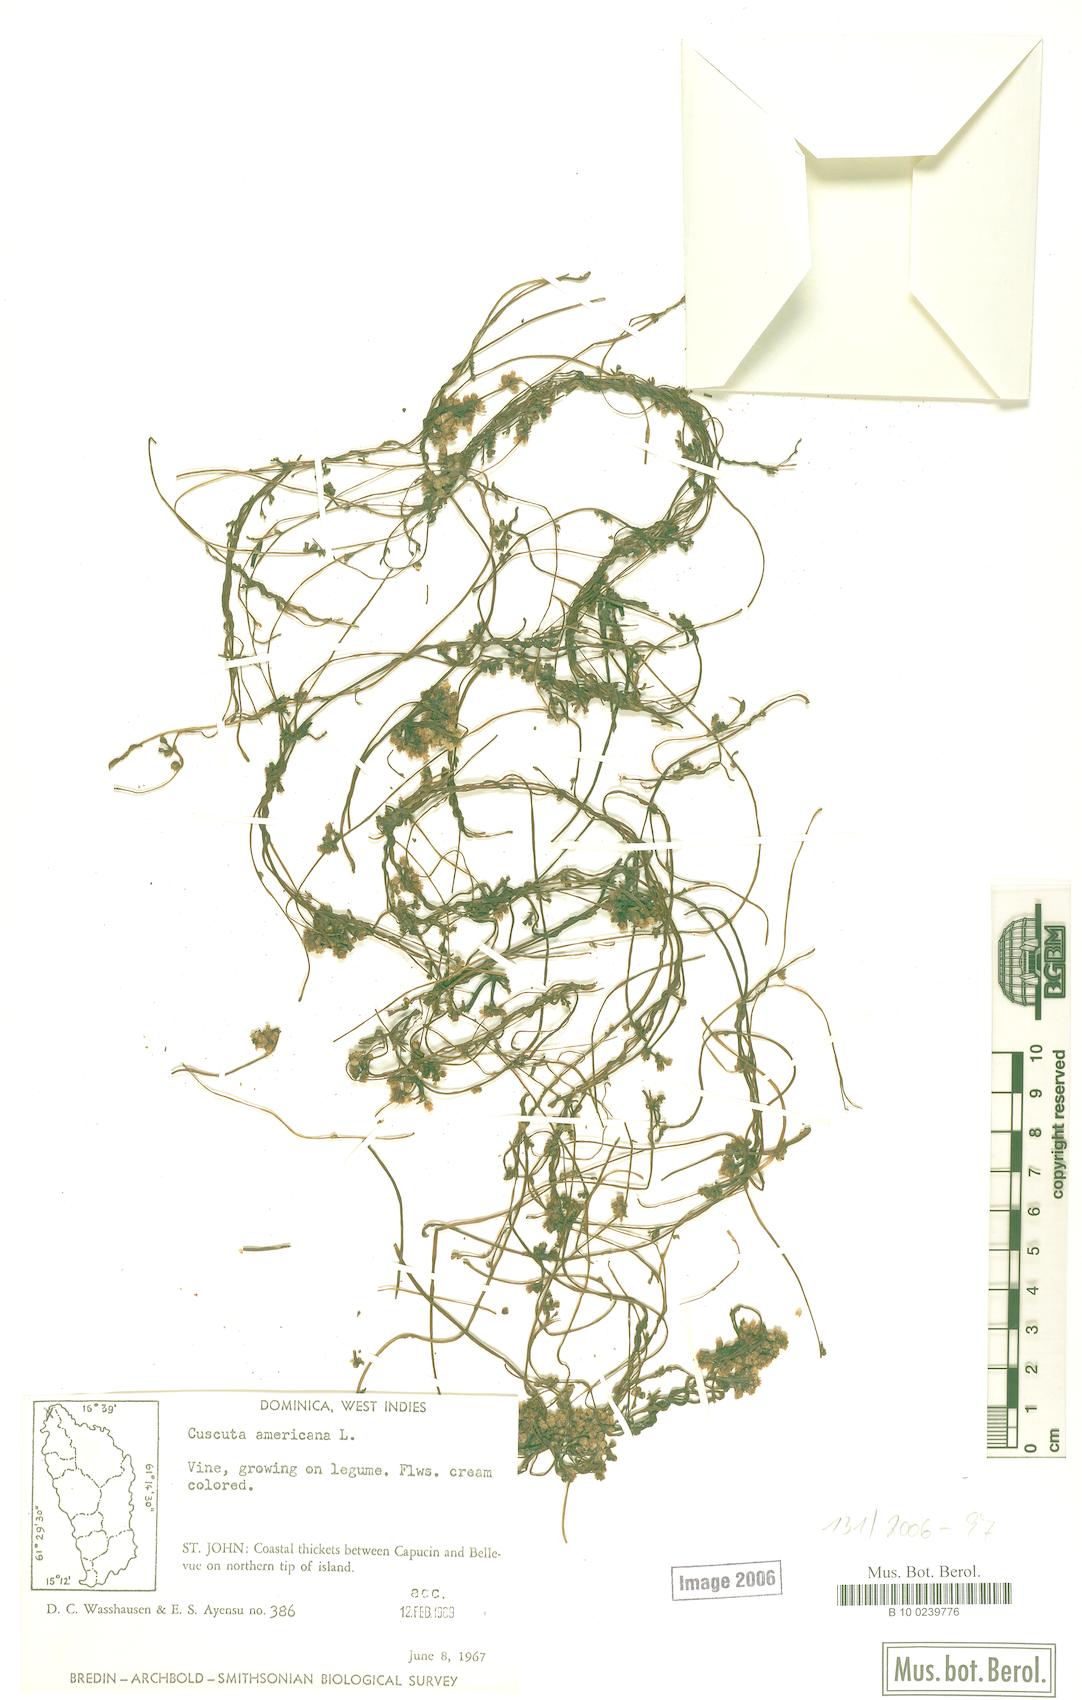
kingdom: Plantae
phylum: Tracheophyta
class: Magnoliopsida
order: Solanales
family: Convolvulaceae
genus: Cuscuta
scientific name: Cuscuta americana
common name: American dodder
